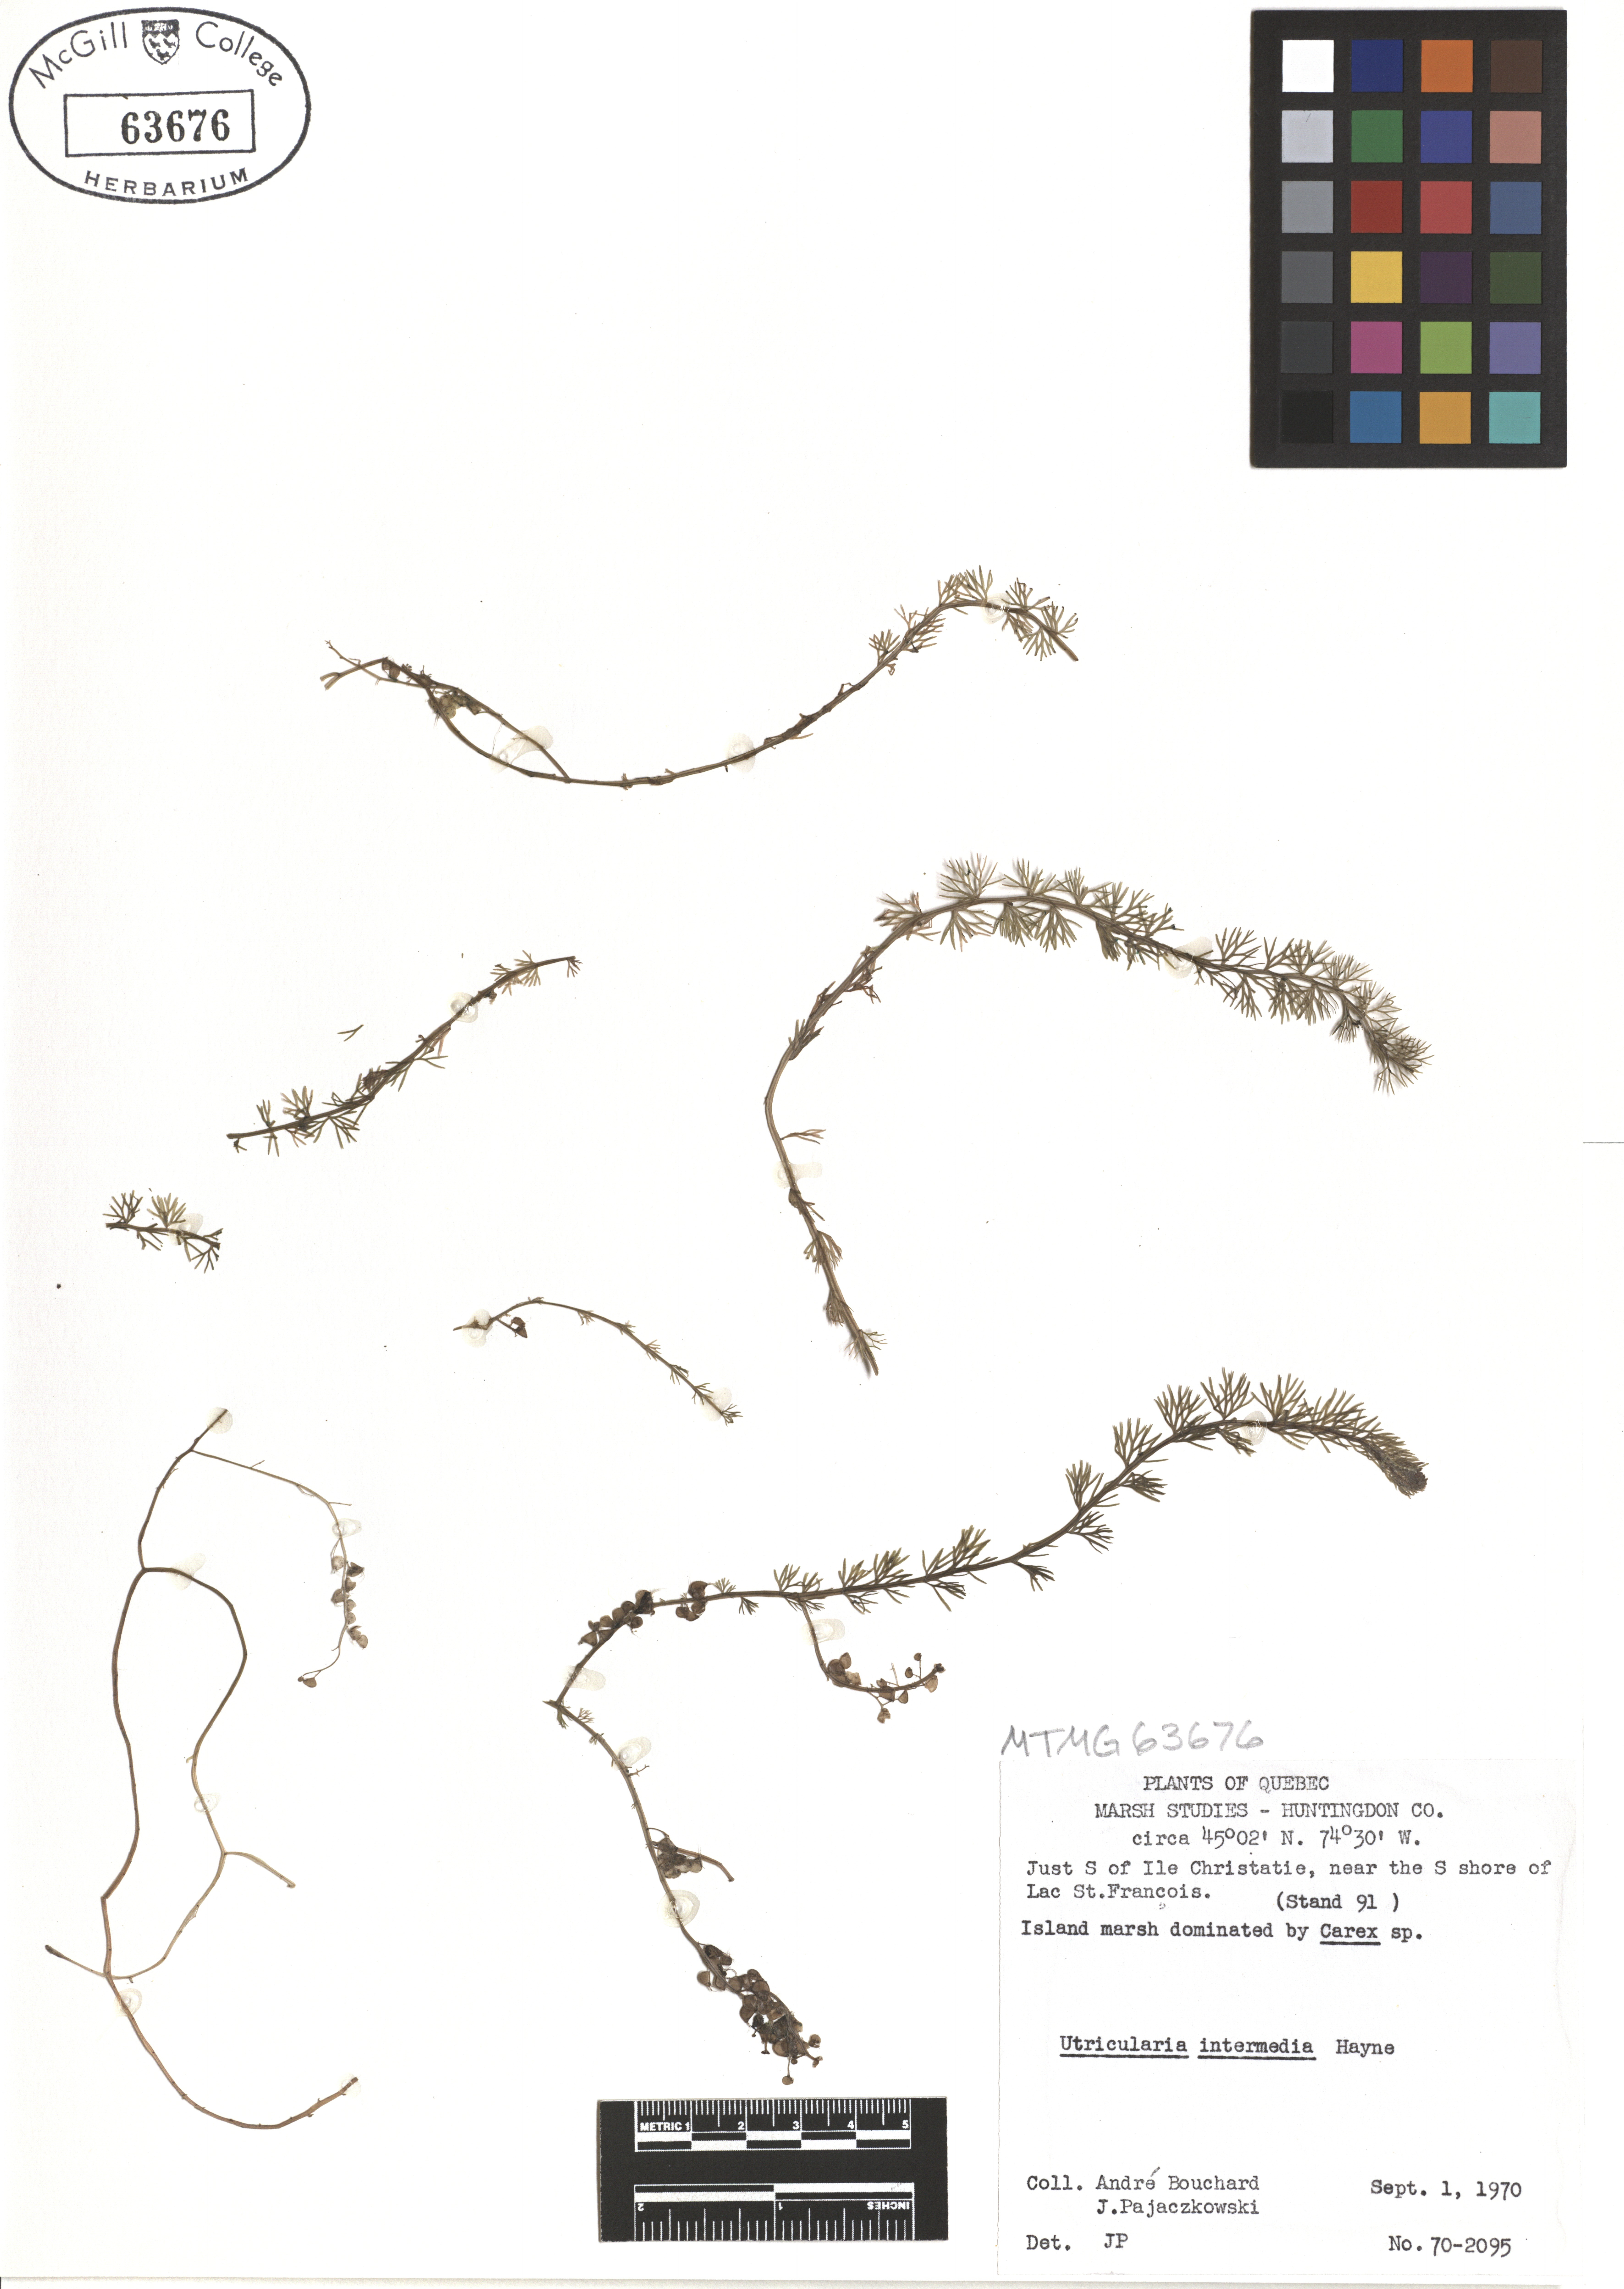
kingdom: Plantae
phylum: Tracheophyta
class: Magnoliopsida
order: Lamiales
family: Lentibulariaceae
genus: Utricularia
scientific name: Utricularia intermedia
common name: Intermediate bladderwort
